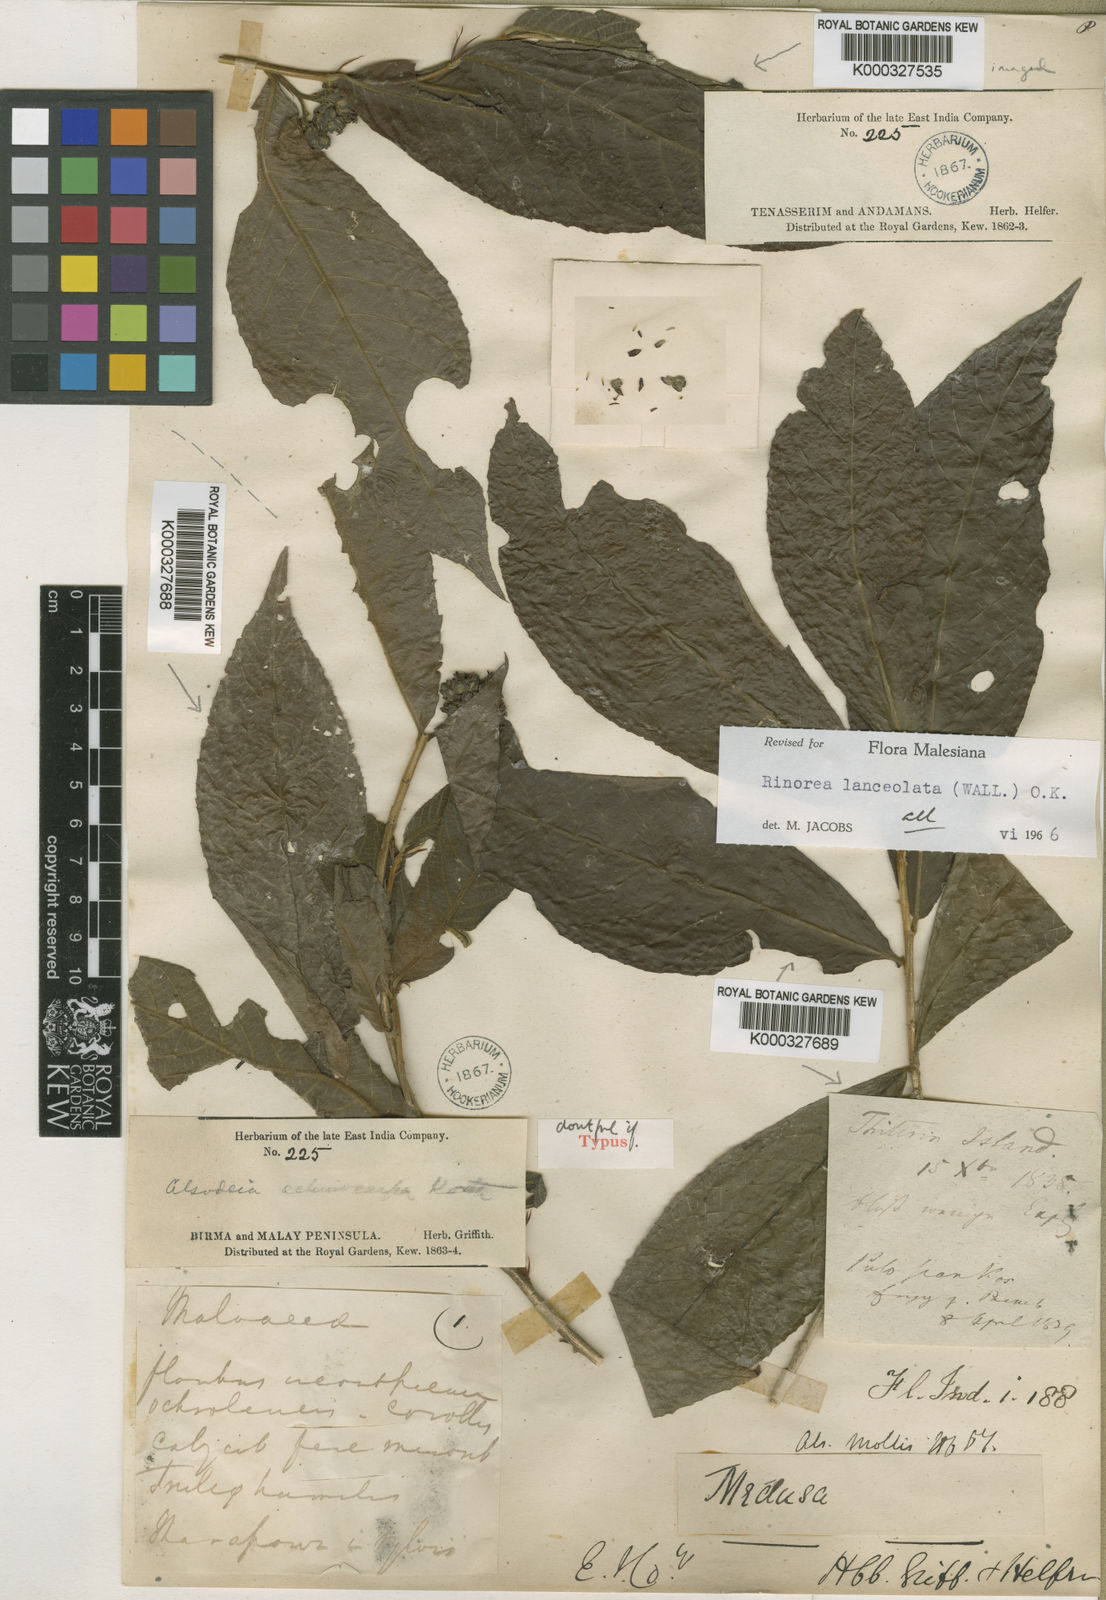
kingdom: Plantae
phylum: Tracheophyta
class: Magnoliopsida
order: Malpighiales
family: Violaceae
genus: Rinorea
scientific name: Rinorea lanceolata
